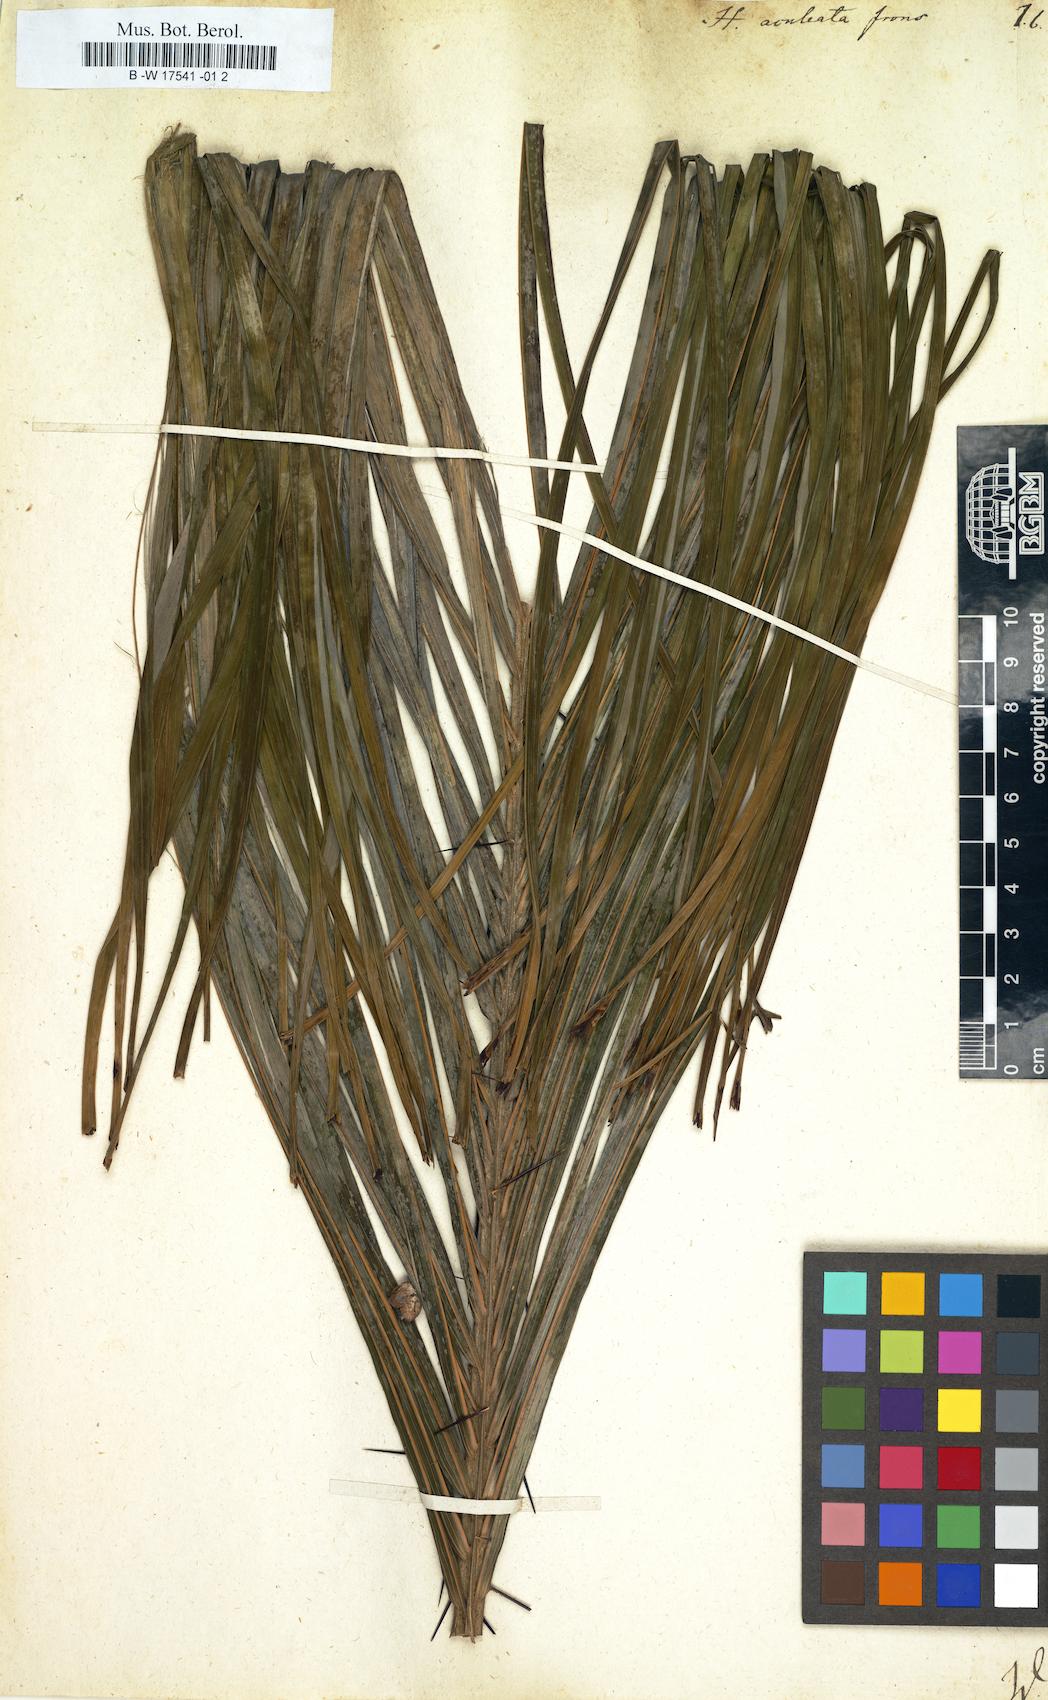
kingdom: Plantae
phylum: Tracheophyta
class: Magnoliopsida
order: Malpighiales
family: Euphorbiaceae
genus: Homonoia
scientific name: Homonoia
